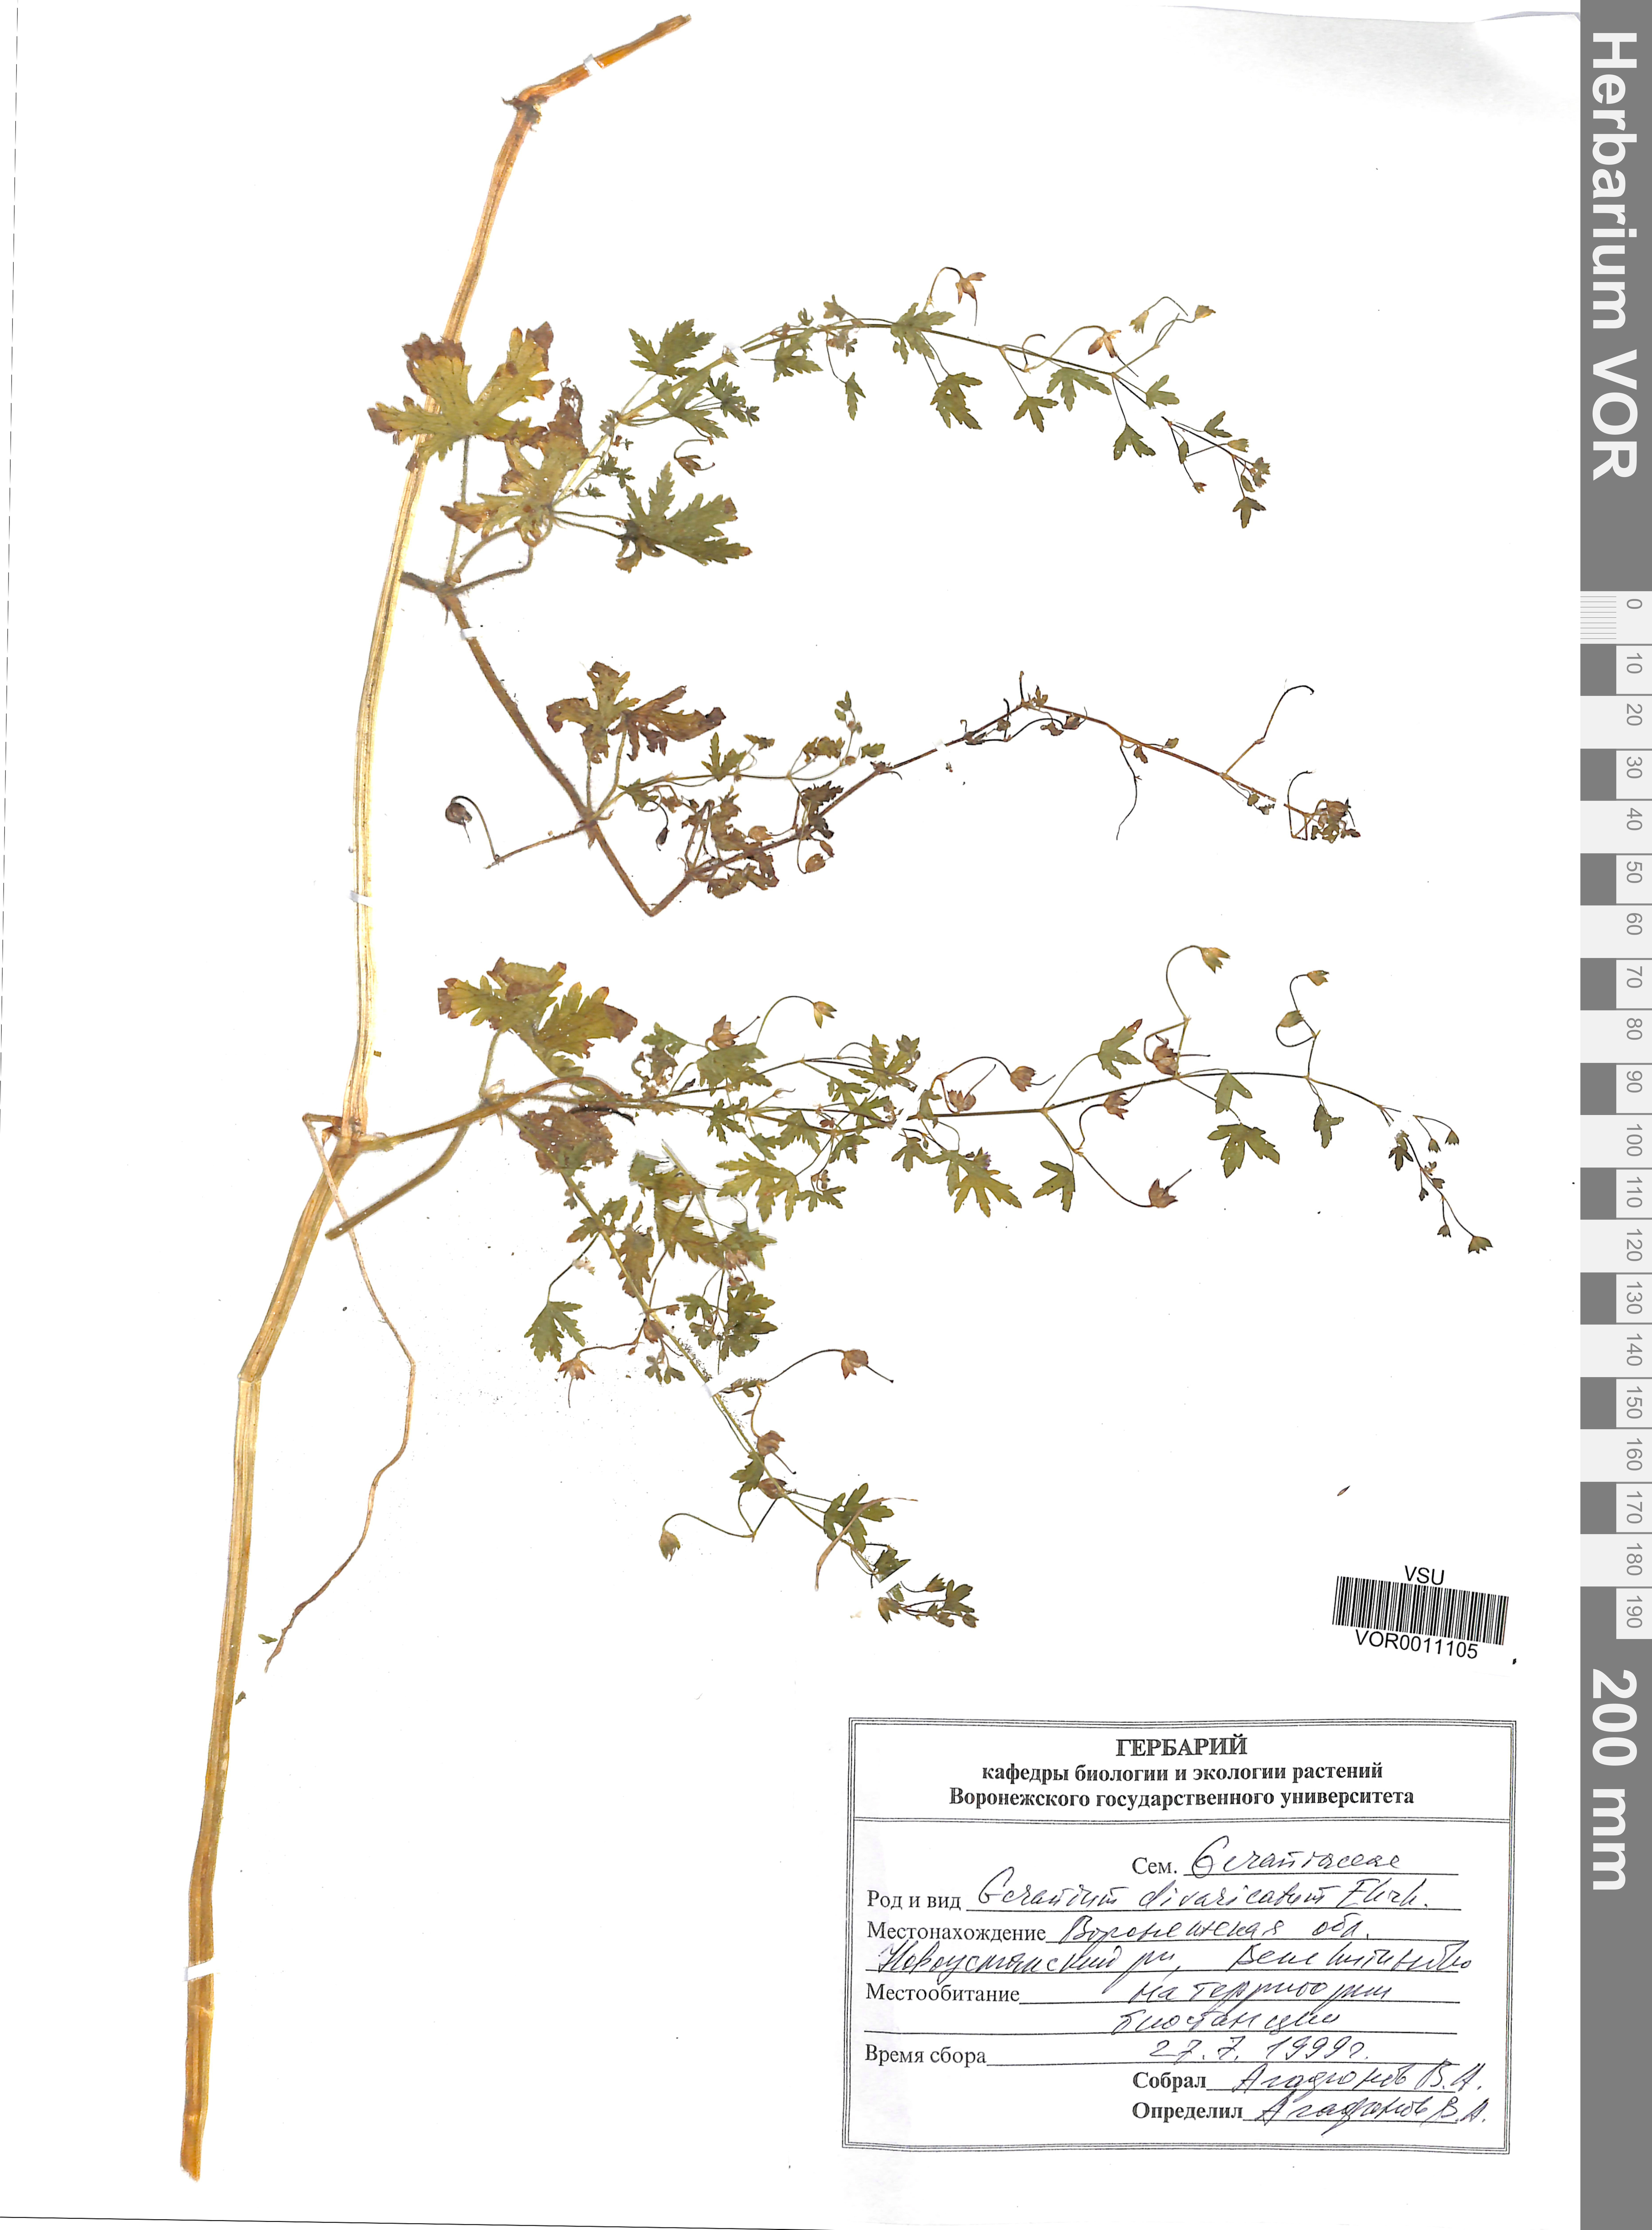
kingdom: Plantae
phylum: Tracheophyta
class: Magnoliopsida
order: Geraniales
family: Geraniaceae
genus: Geranium
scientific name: Geranium divaricatum
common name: Spreading crane's-bill
